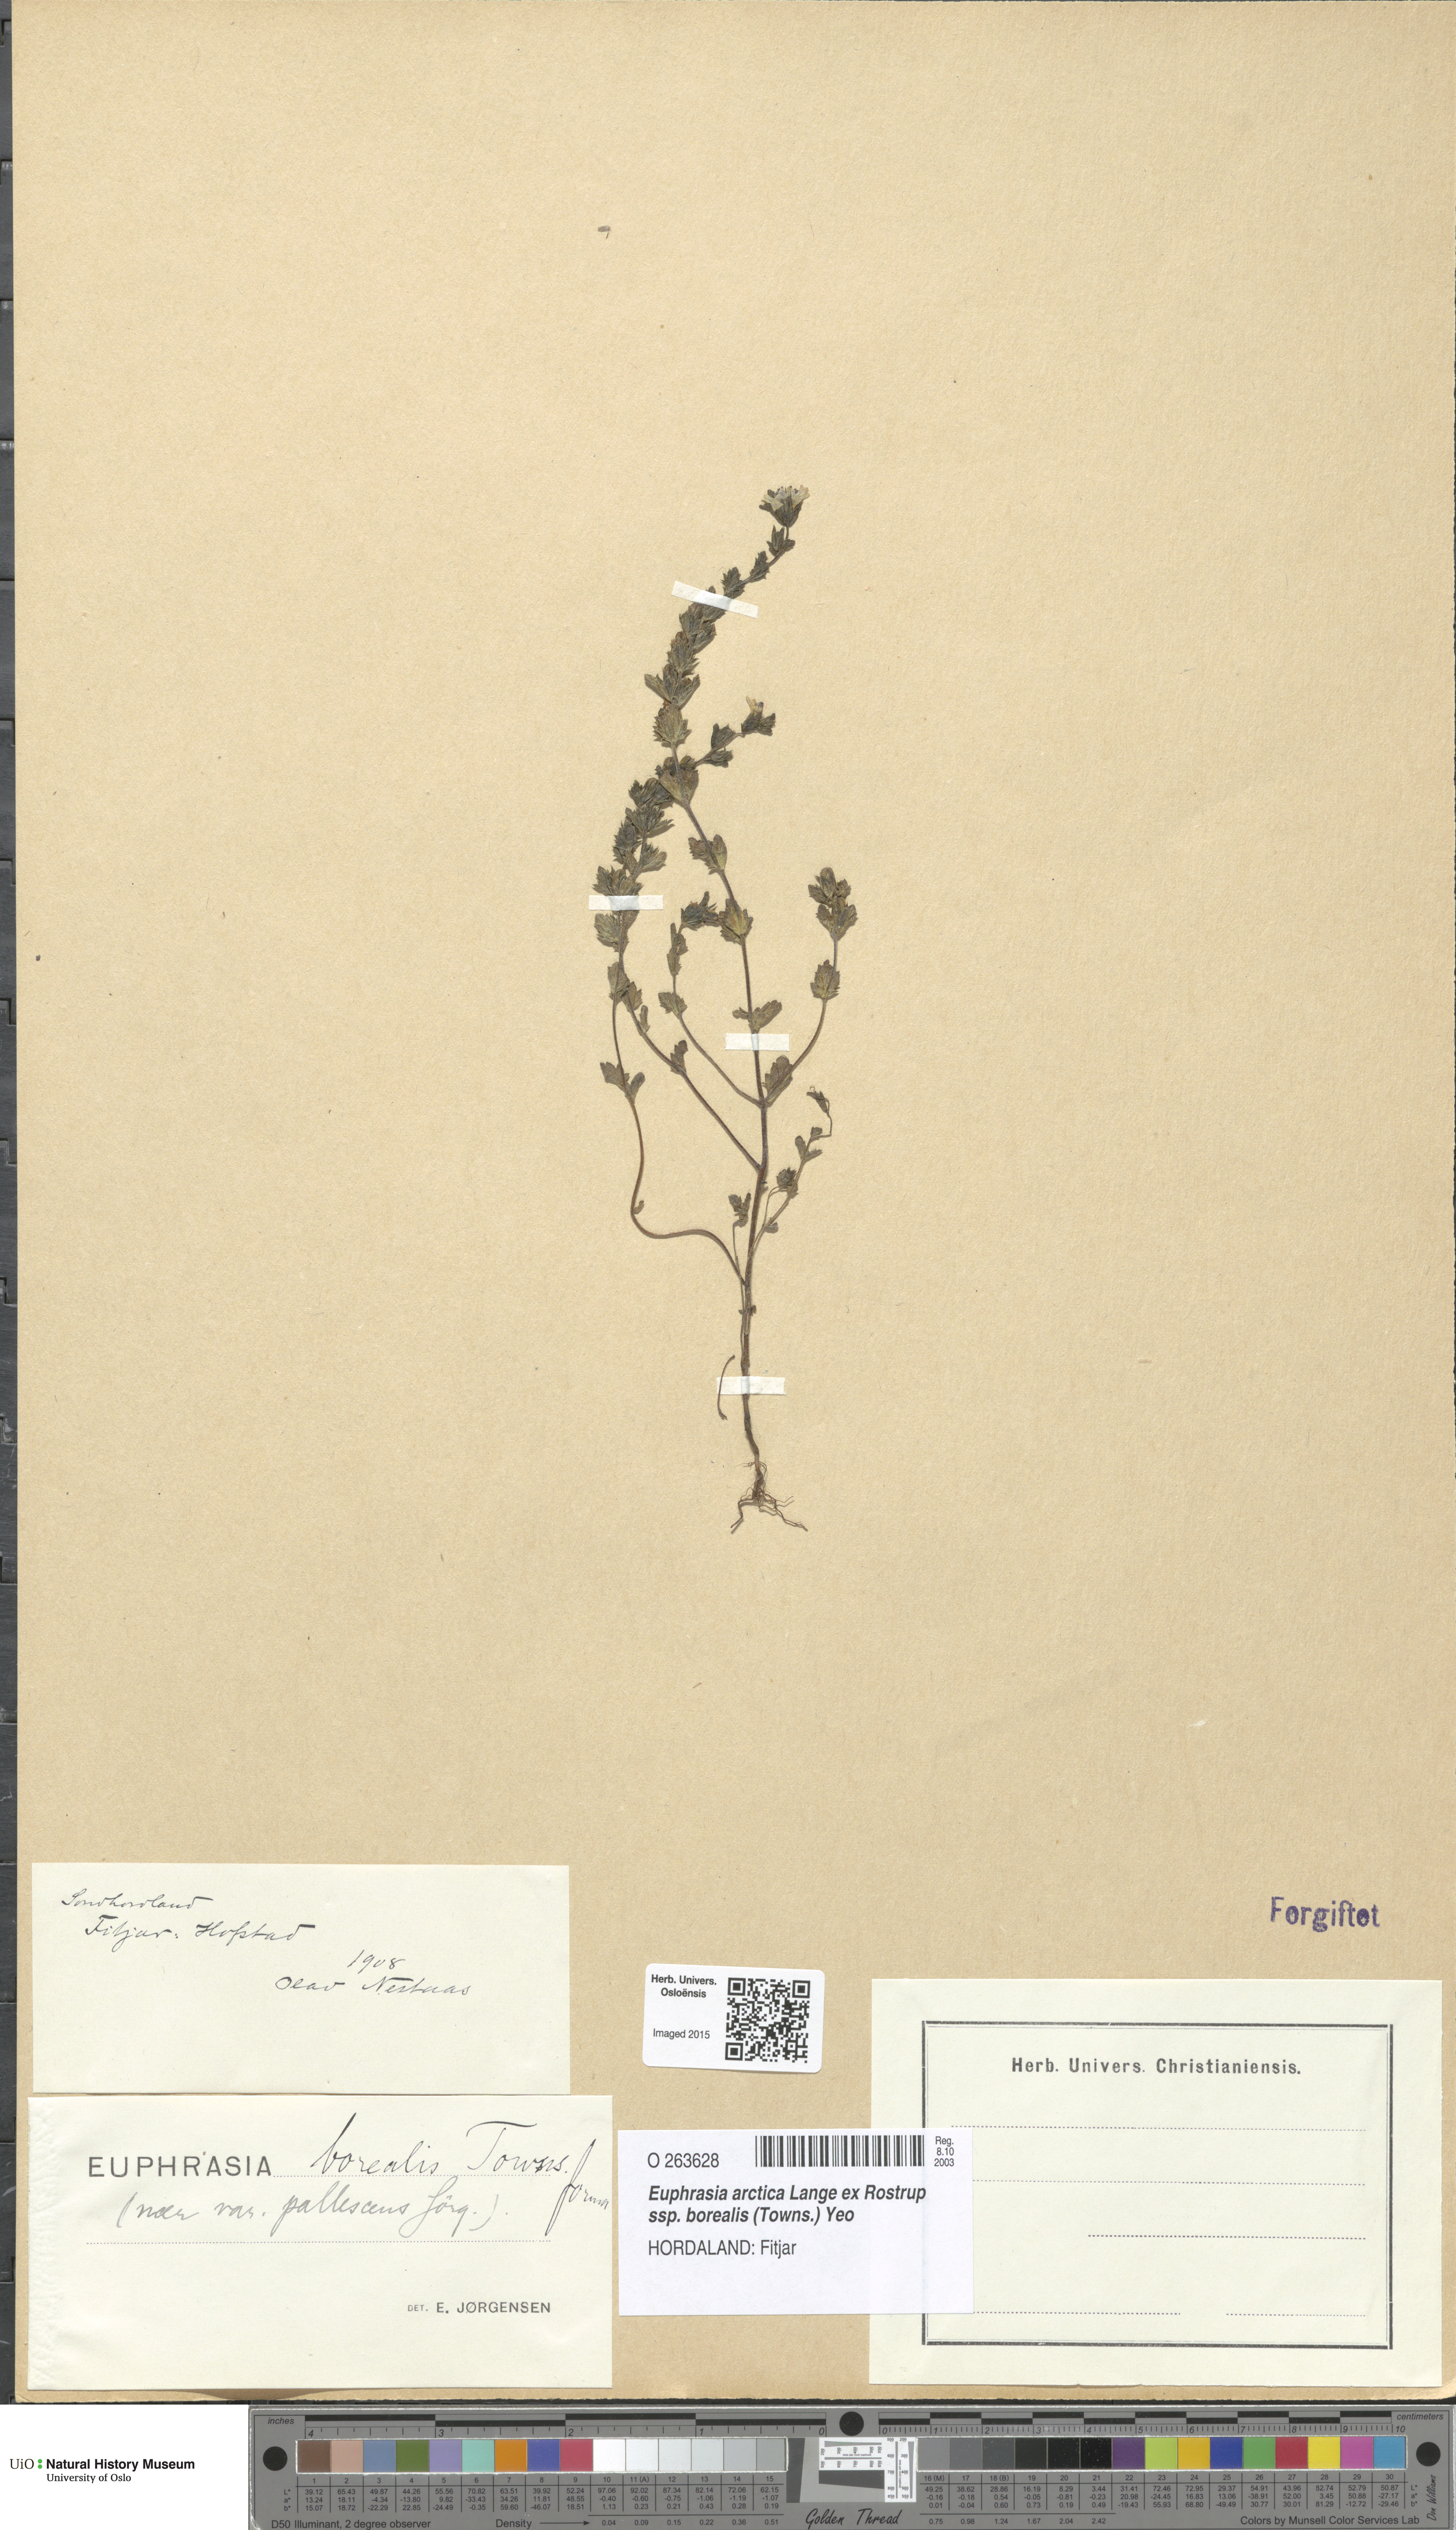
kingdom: Plantae
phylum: Tracheophyta
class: Magnoliopsida
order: Lamiales
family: Orobanchaceae
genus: Euphrasia
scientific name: Euphrasia arctica
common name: An eyebright
